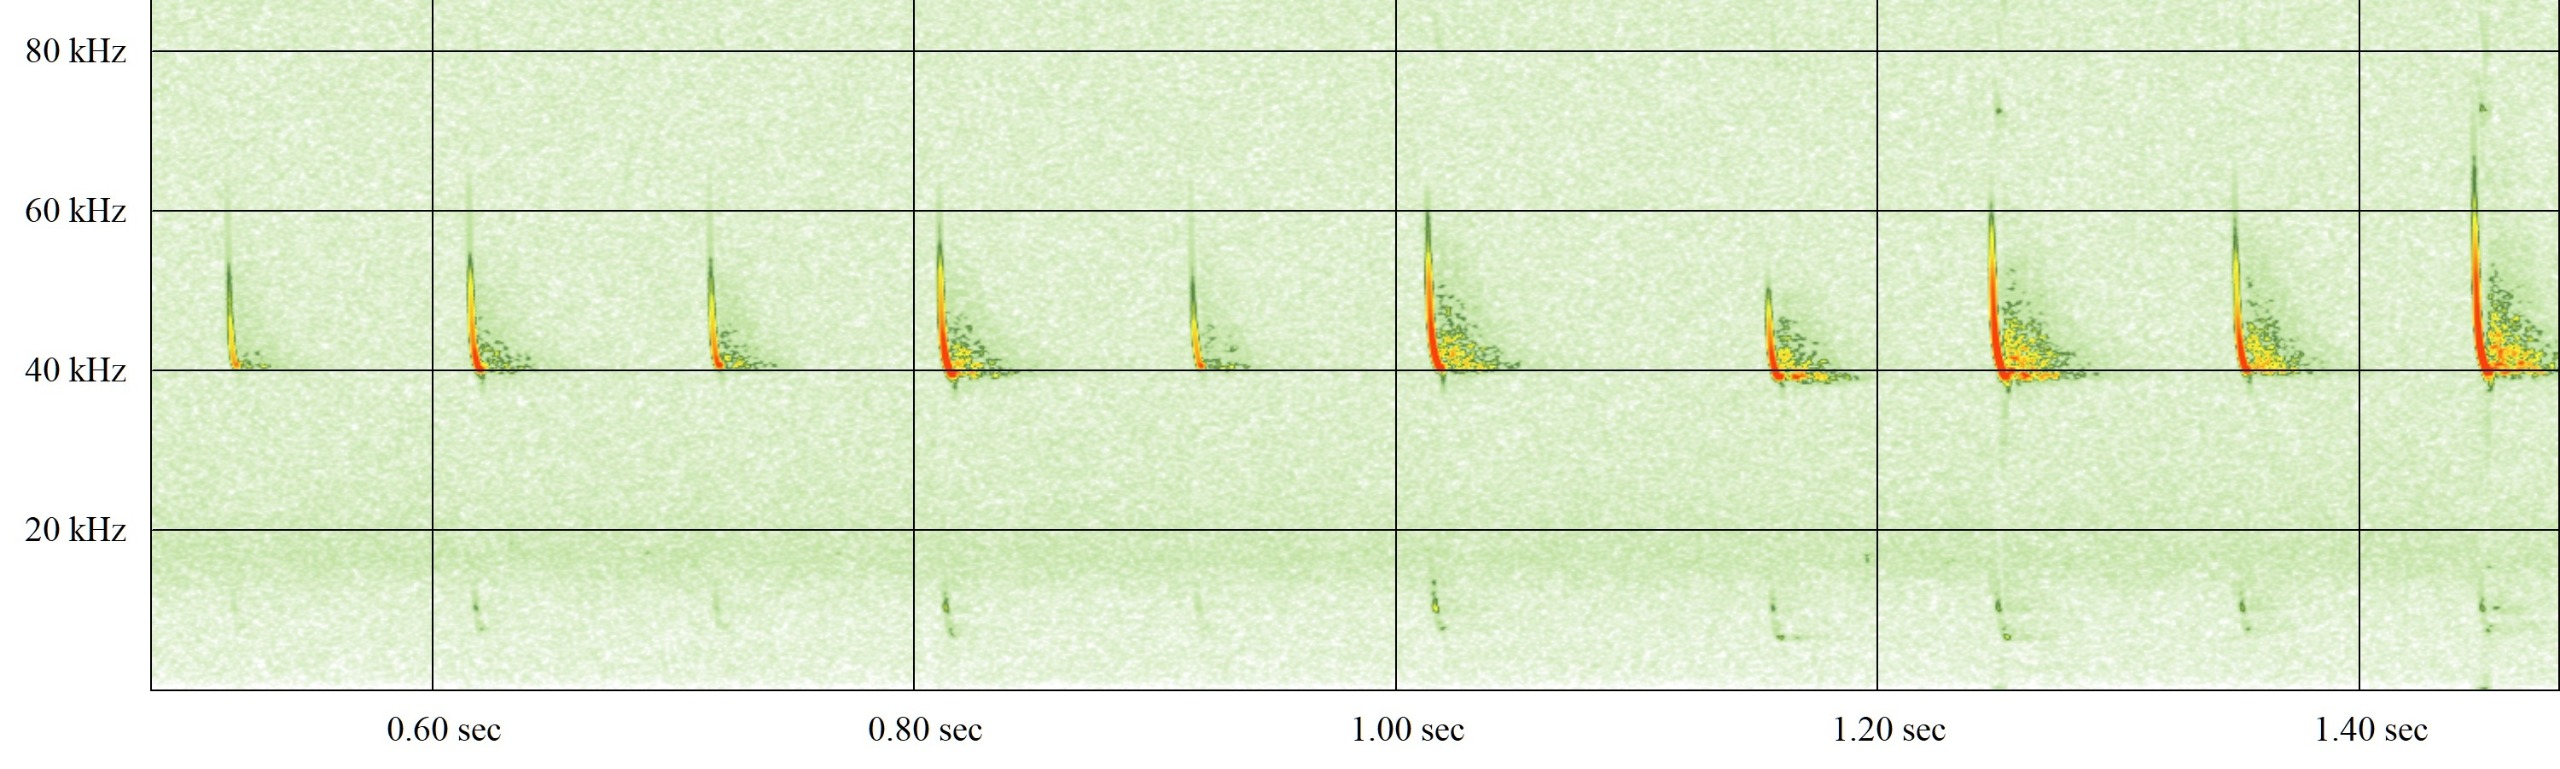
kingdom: Animalia
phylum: Chordata
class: Mammalia
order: Chiroptera
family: Vespertilionidae
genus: Pipistrellus
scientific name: Pipistrellus nathusii
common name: Troldflagermus
